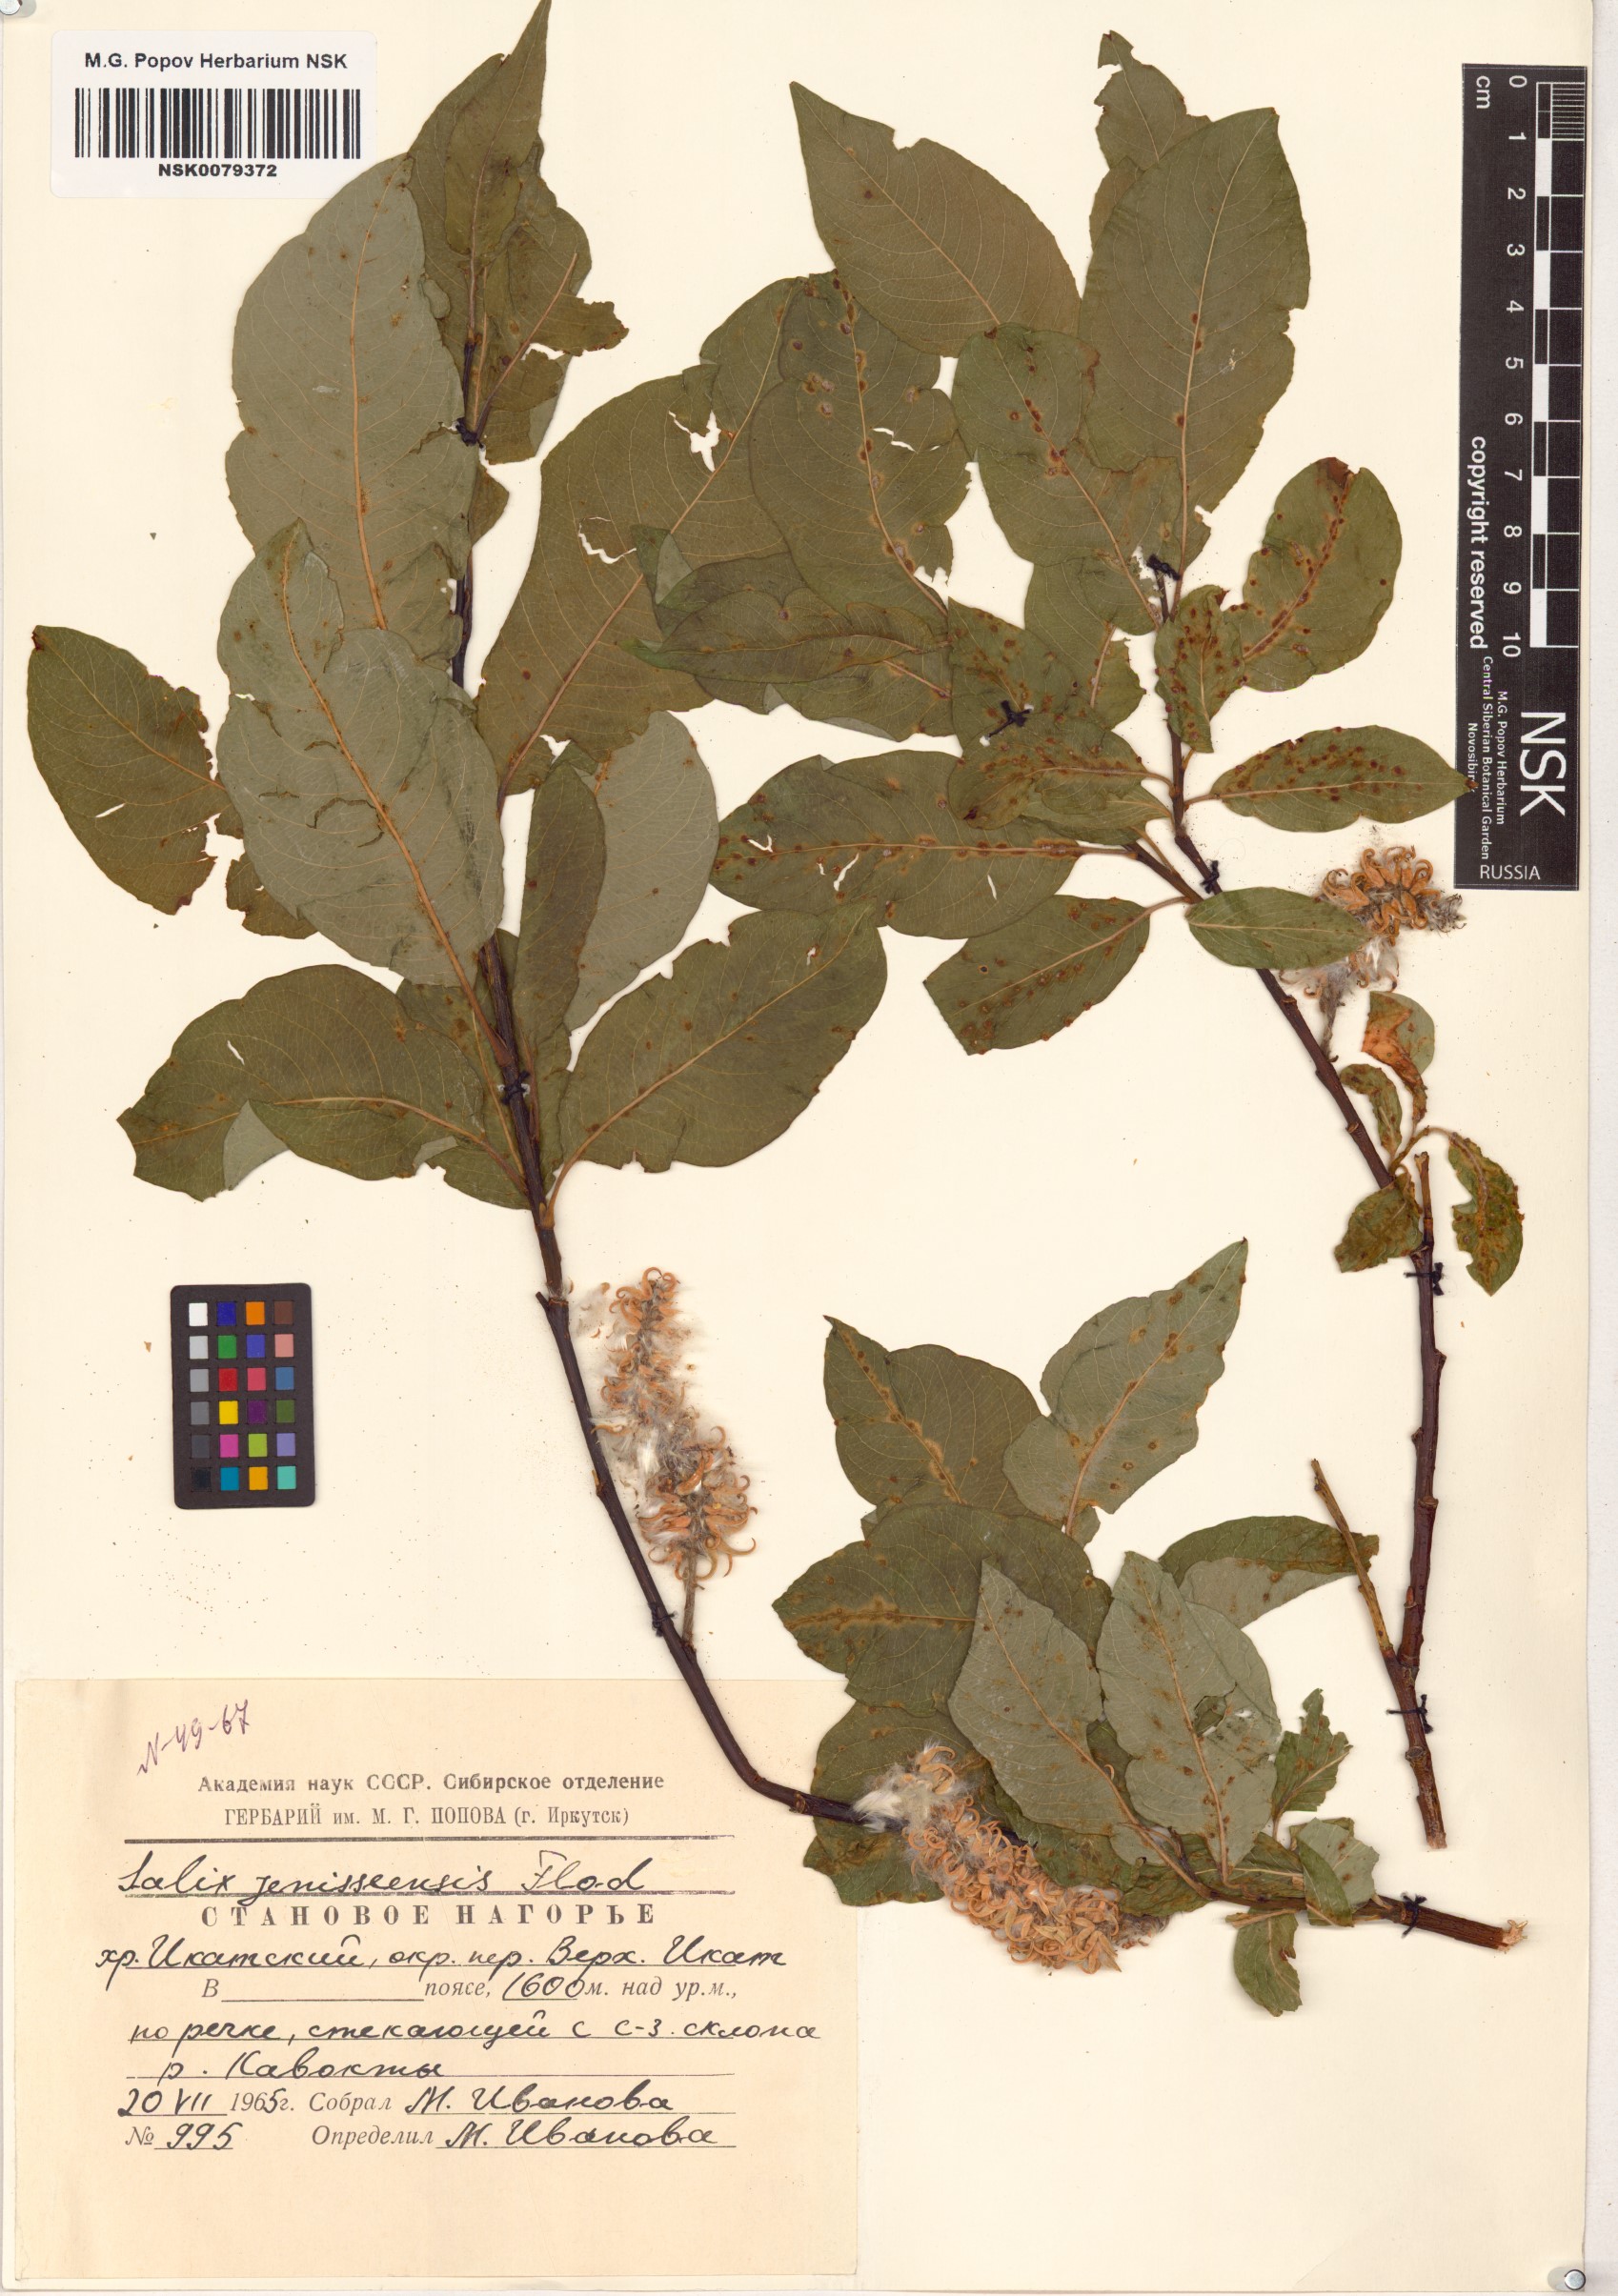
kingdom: Plantae
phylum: Tracheophyta
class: Magnoliopsida
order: Malpighiales
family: Salicaceae
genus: Salix
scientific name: Salix jenisseensis
